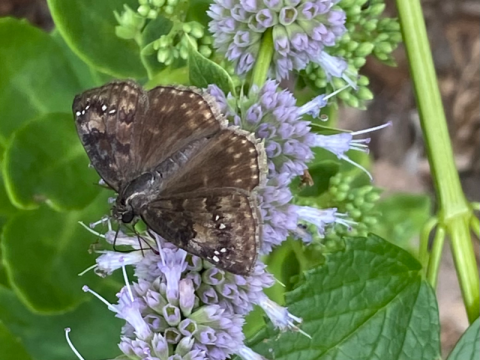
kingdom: Animalia
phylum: Arthropoda
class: Insecta
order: Lepidoptera
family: Hesperiidae
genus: Gesta
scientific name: Gesta
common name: Wild Indigo Duskywing
